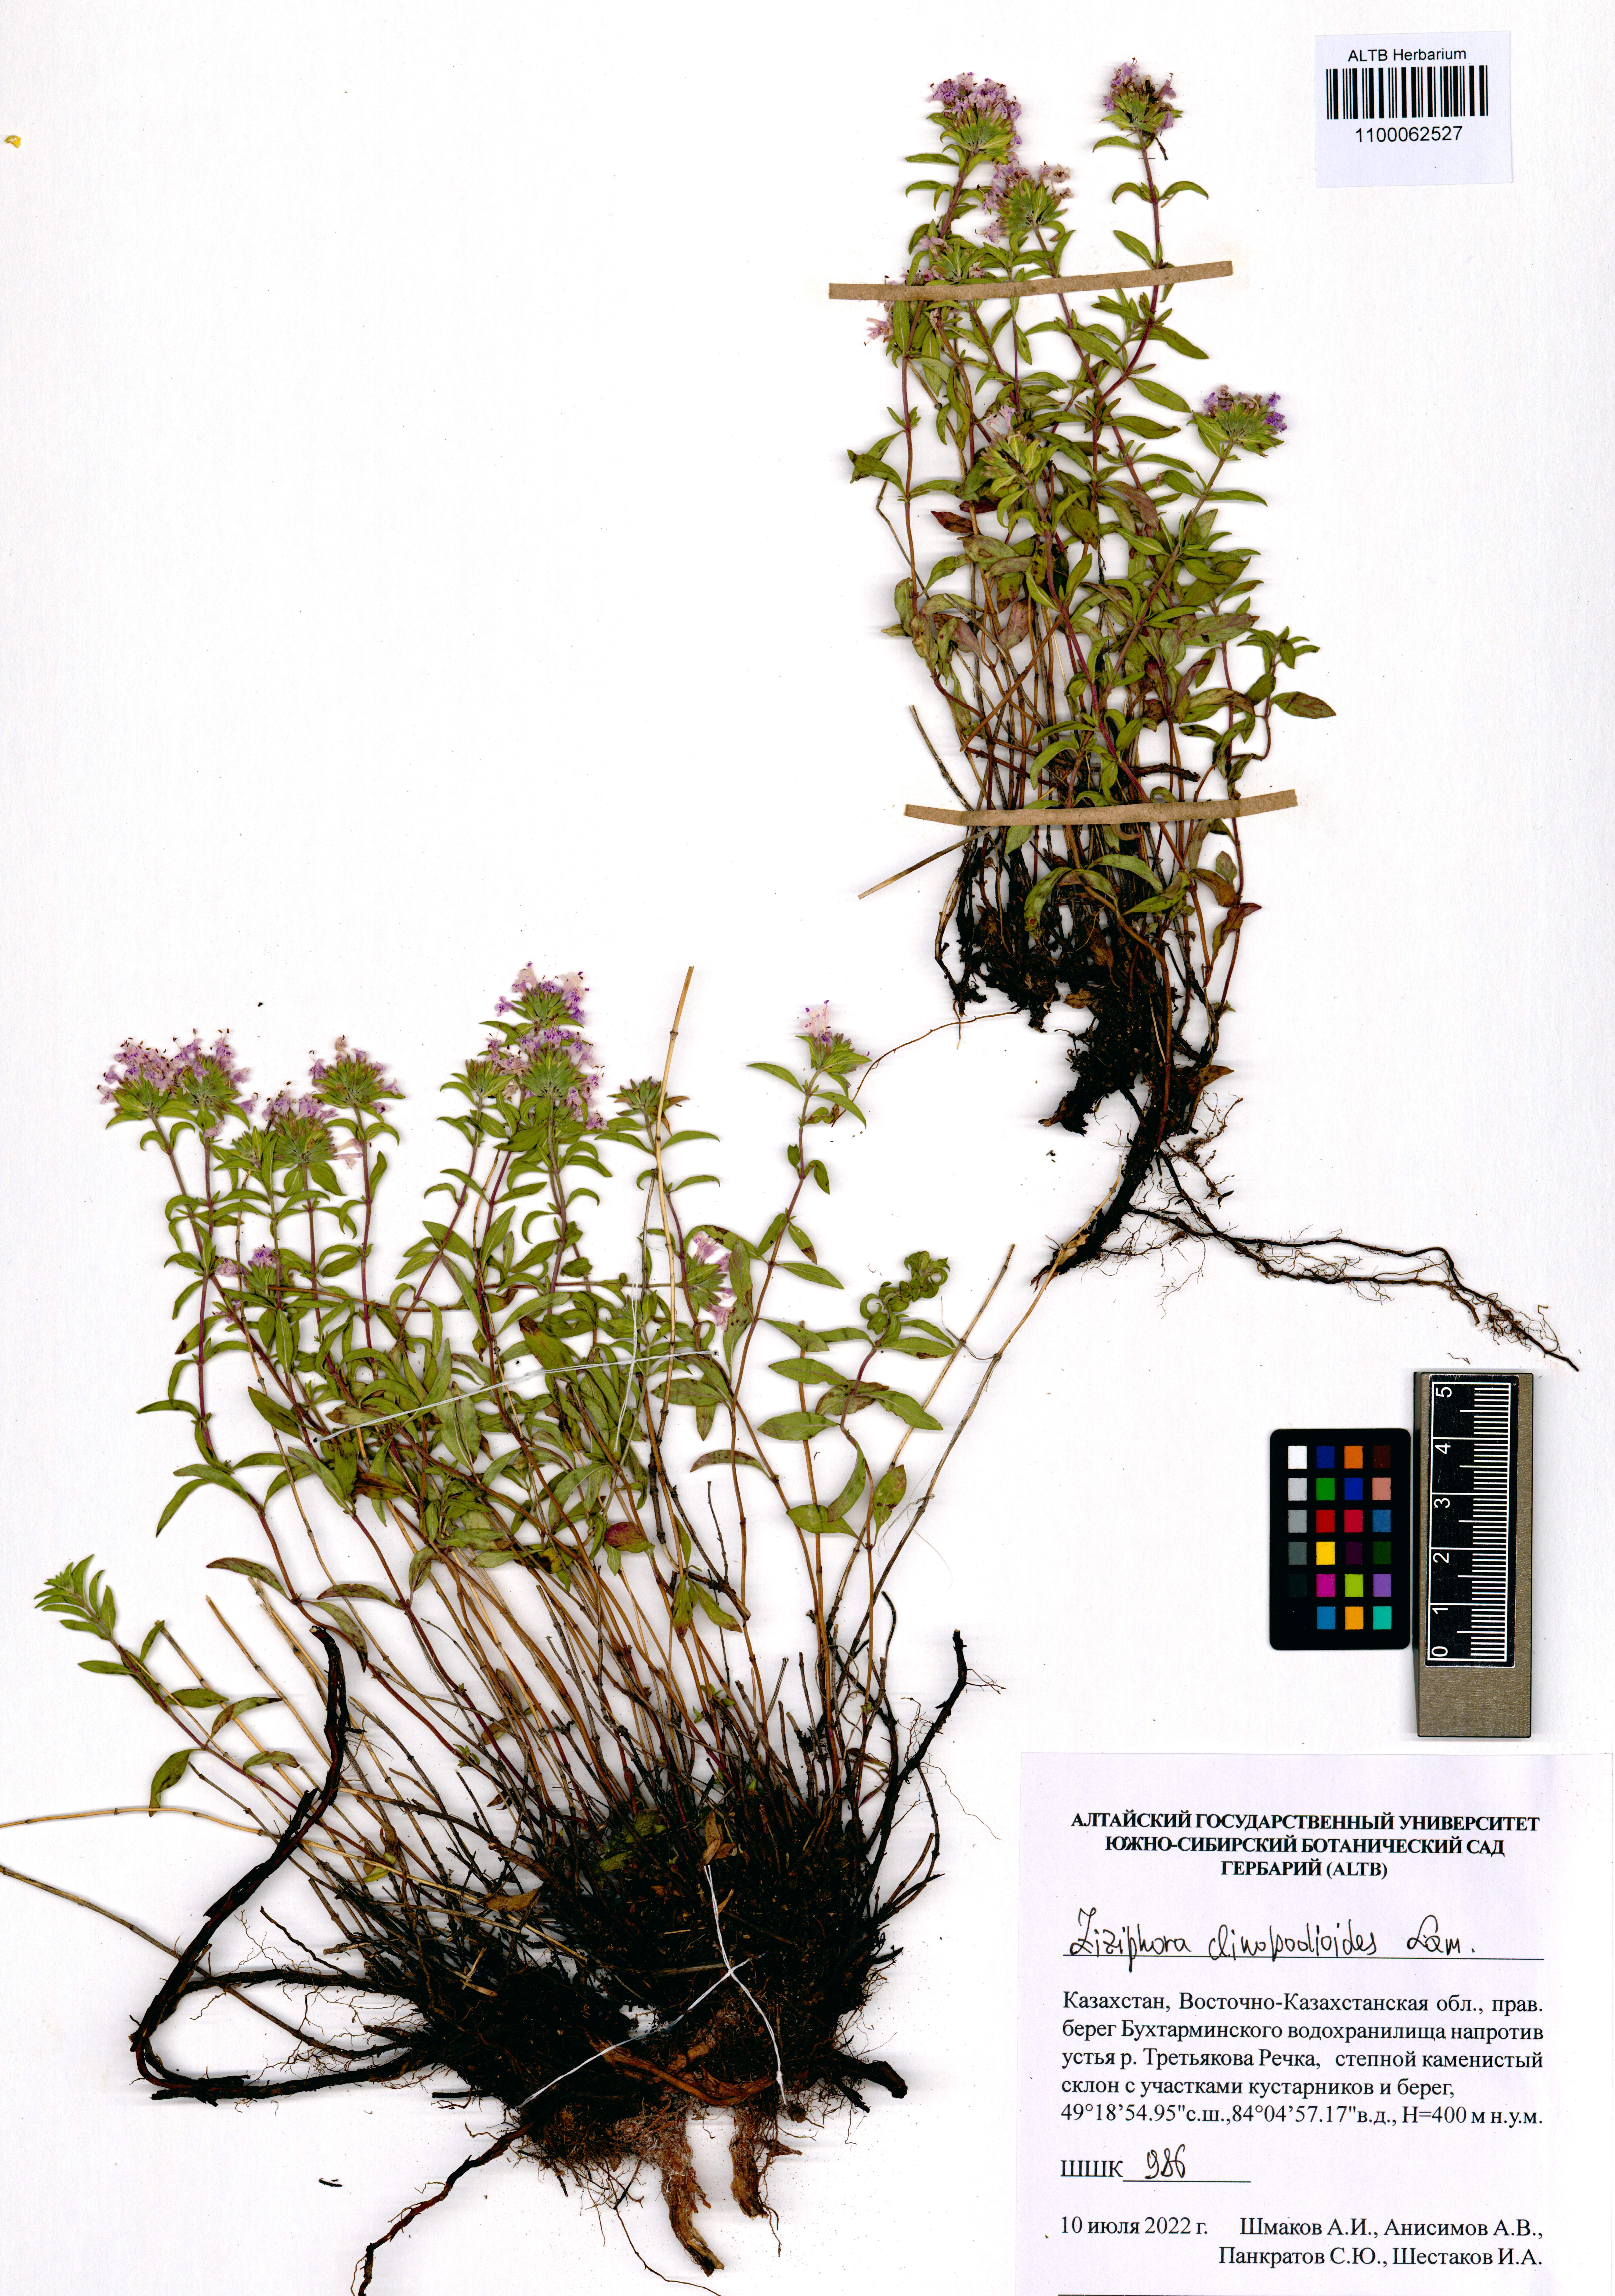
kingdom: Plantae
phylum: Tracheophyta
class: Magnoliopsida
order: Lamiales
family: Lamiaceae
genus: Ziziphora
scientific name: Ziziphora clinopodioides
